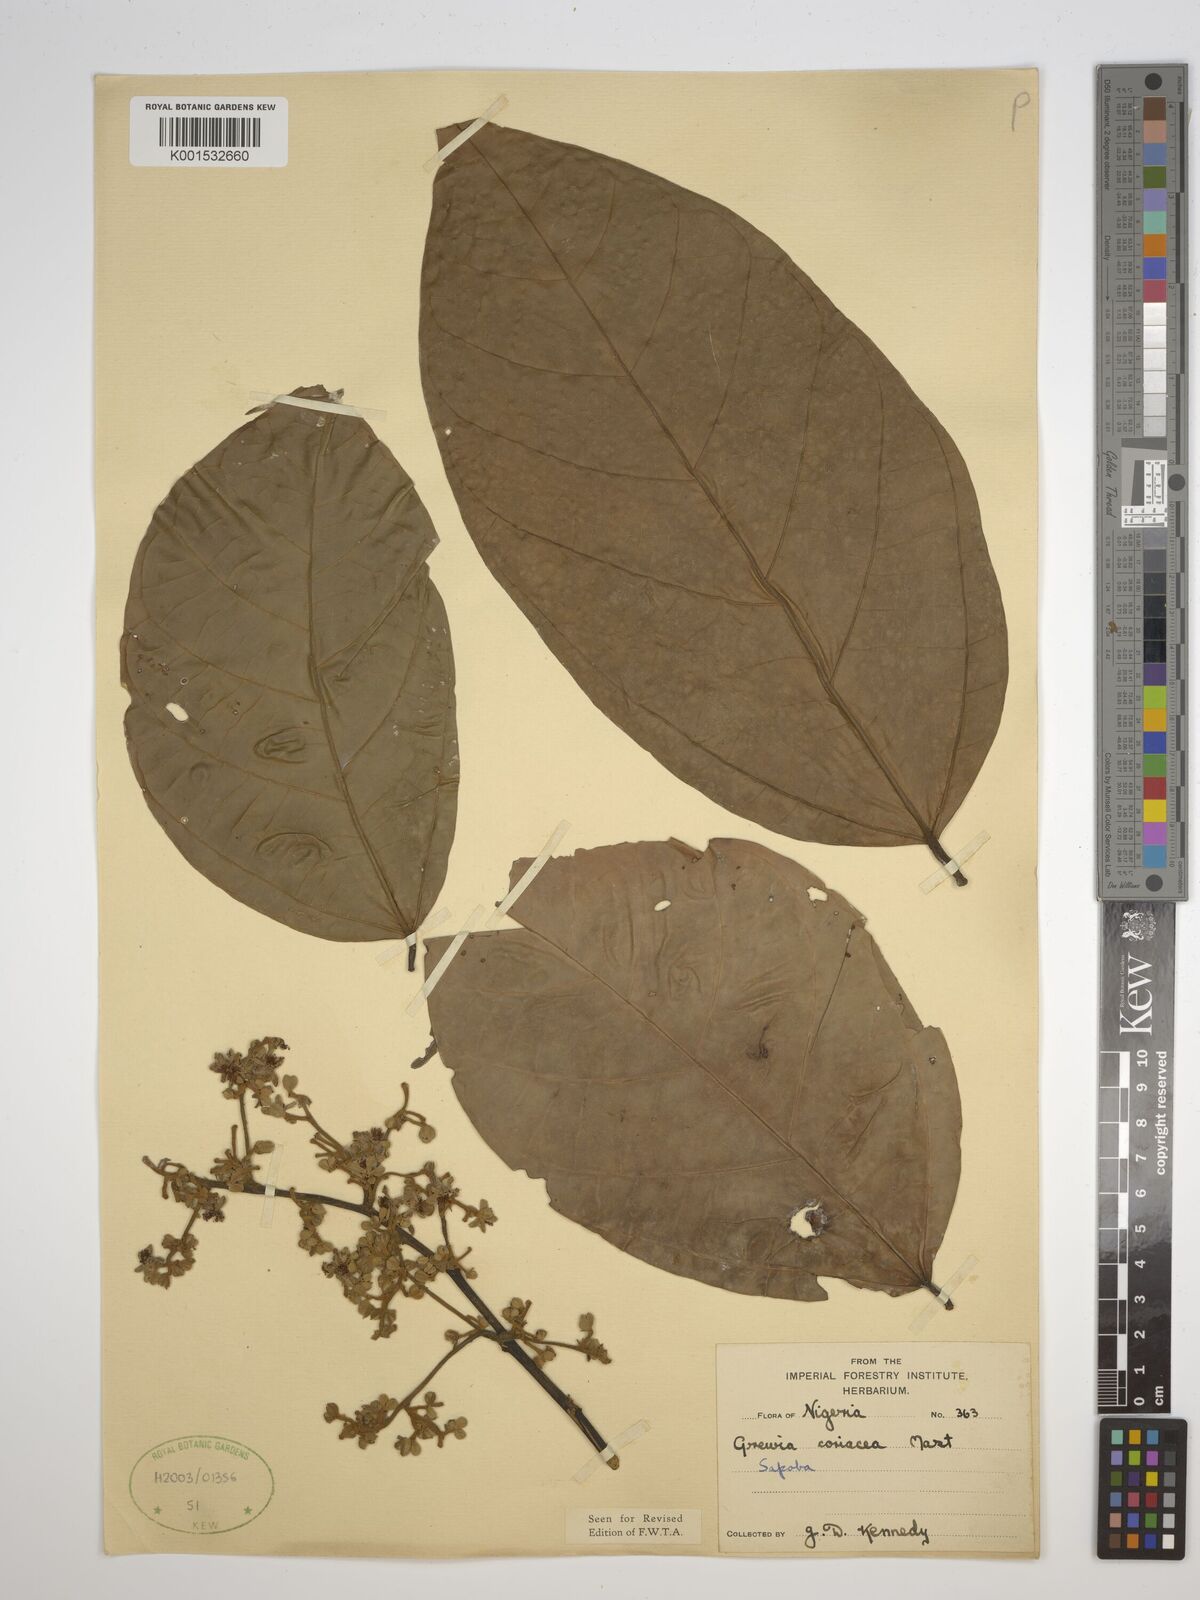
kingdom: Plantae
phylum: Tracheophyta
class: Magnoliopsida
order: Malvales
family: Malvaceae
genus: Microcos
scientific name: Microcos coriacea
